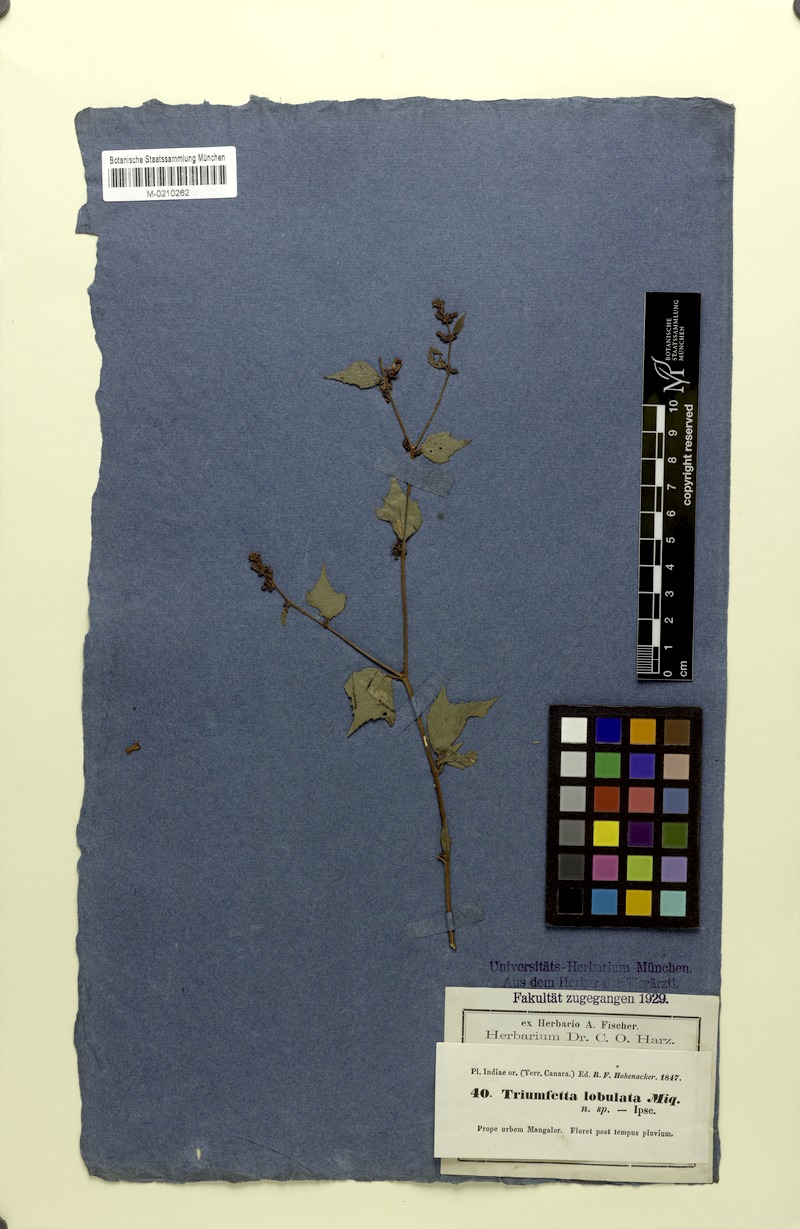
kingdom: Plantae
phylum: Tracheophyta
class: Magnoliopsida
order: Malvales
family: Malvaceae
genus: Triumfetta
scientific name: Triumfetta rhomboidea
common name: Diamond burbark
